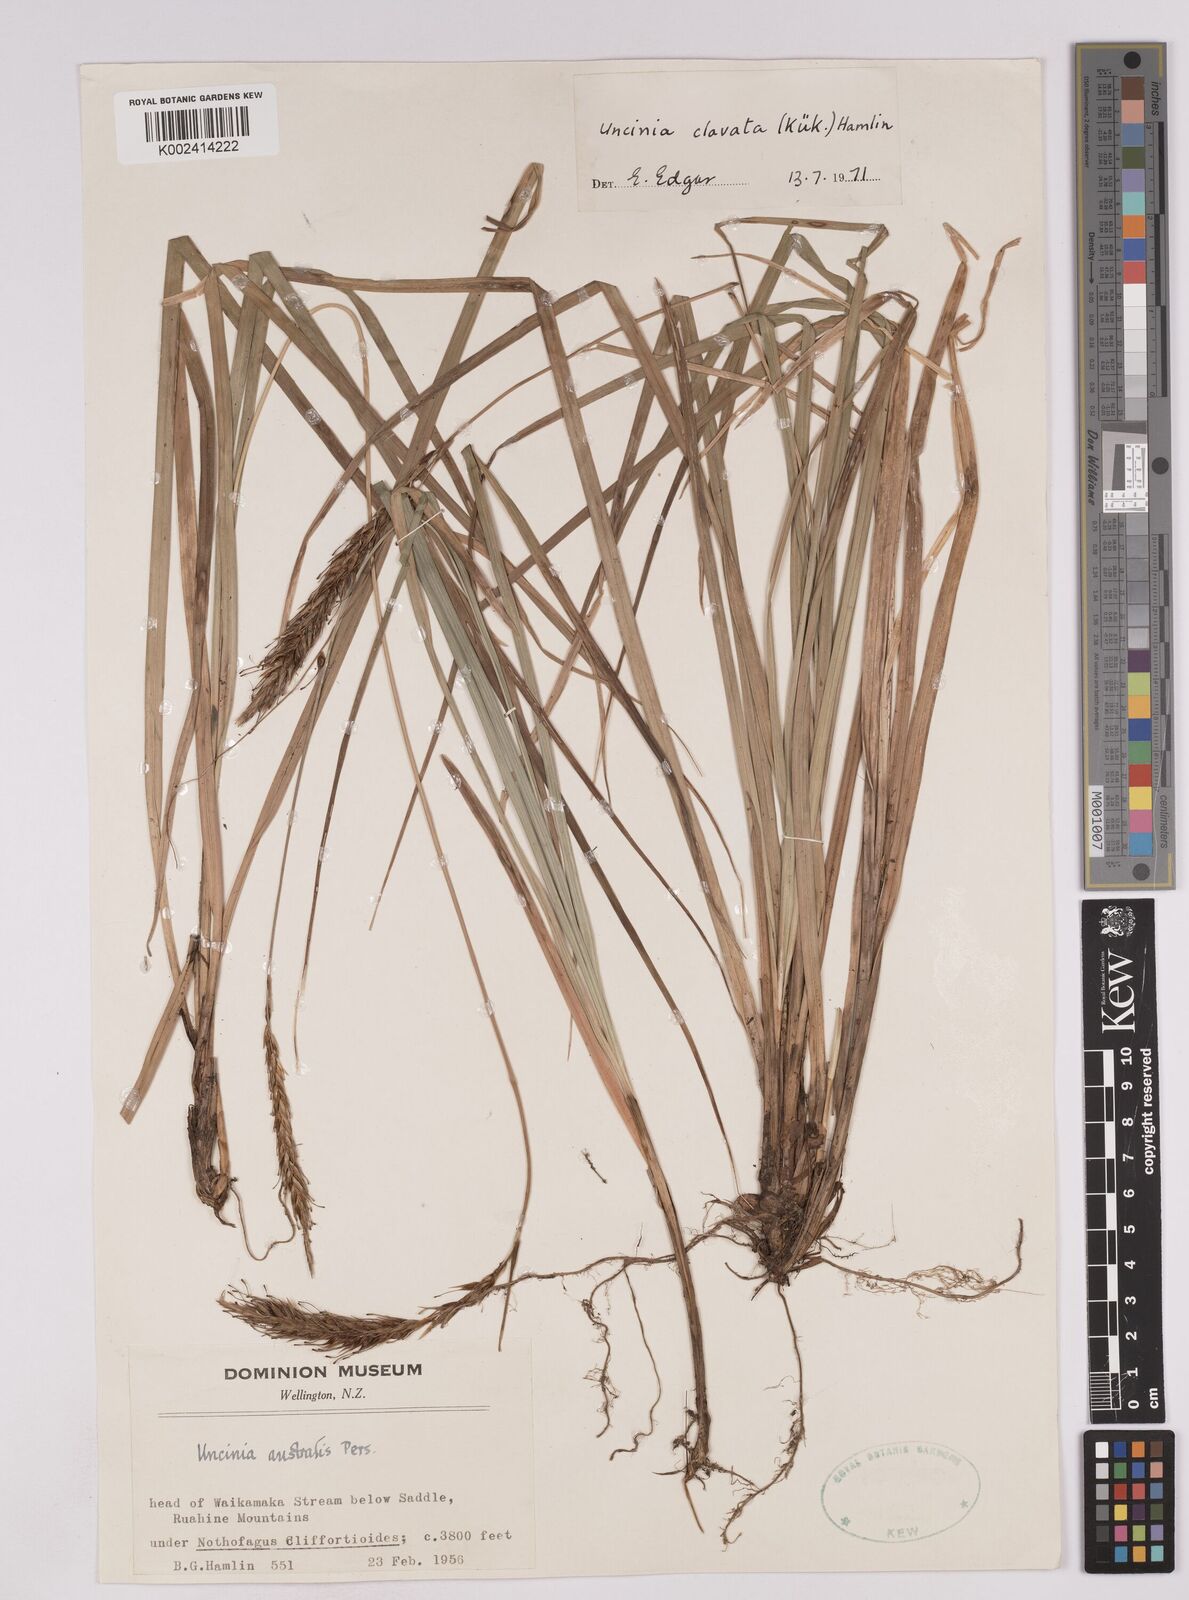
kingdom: Plantae
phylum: Tracheophyta
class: Liliopsida
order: Poales
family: Cyperaceae
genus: Carex
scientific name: Carex uncinata
